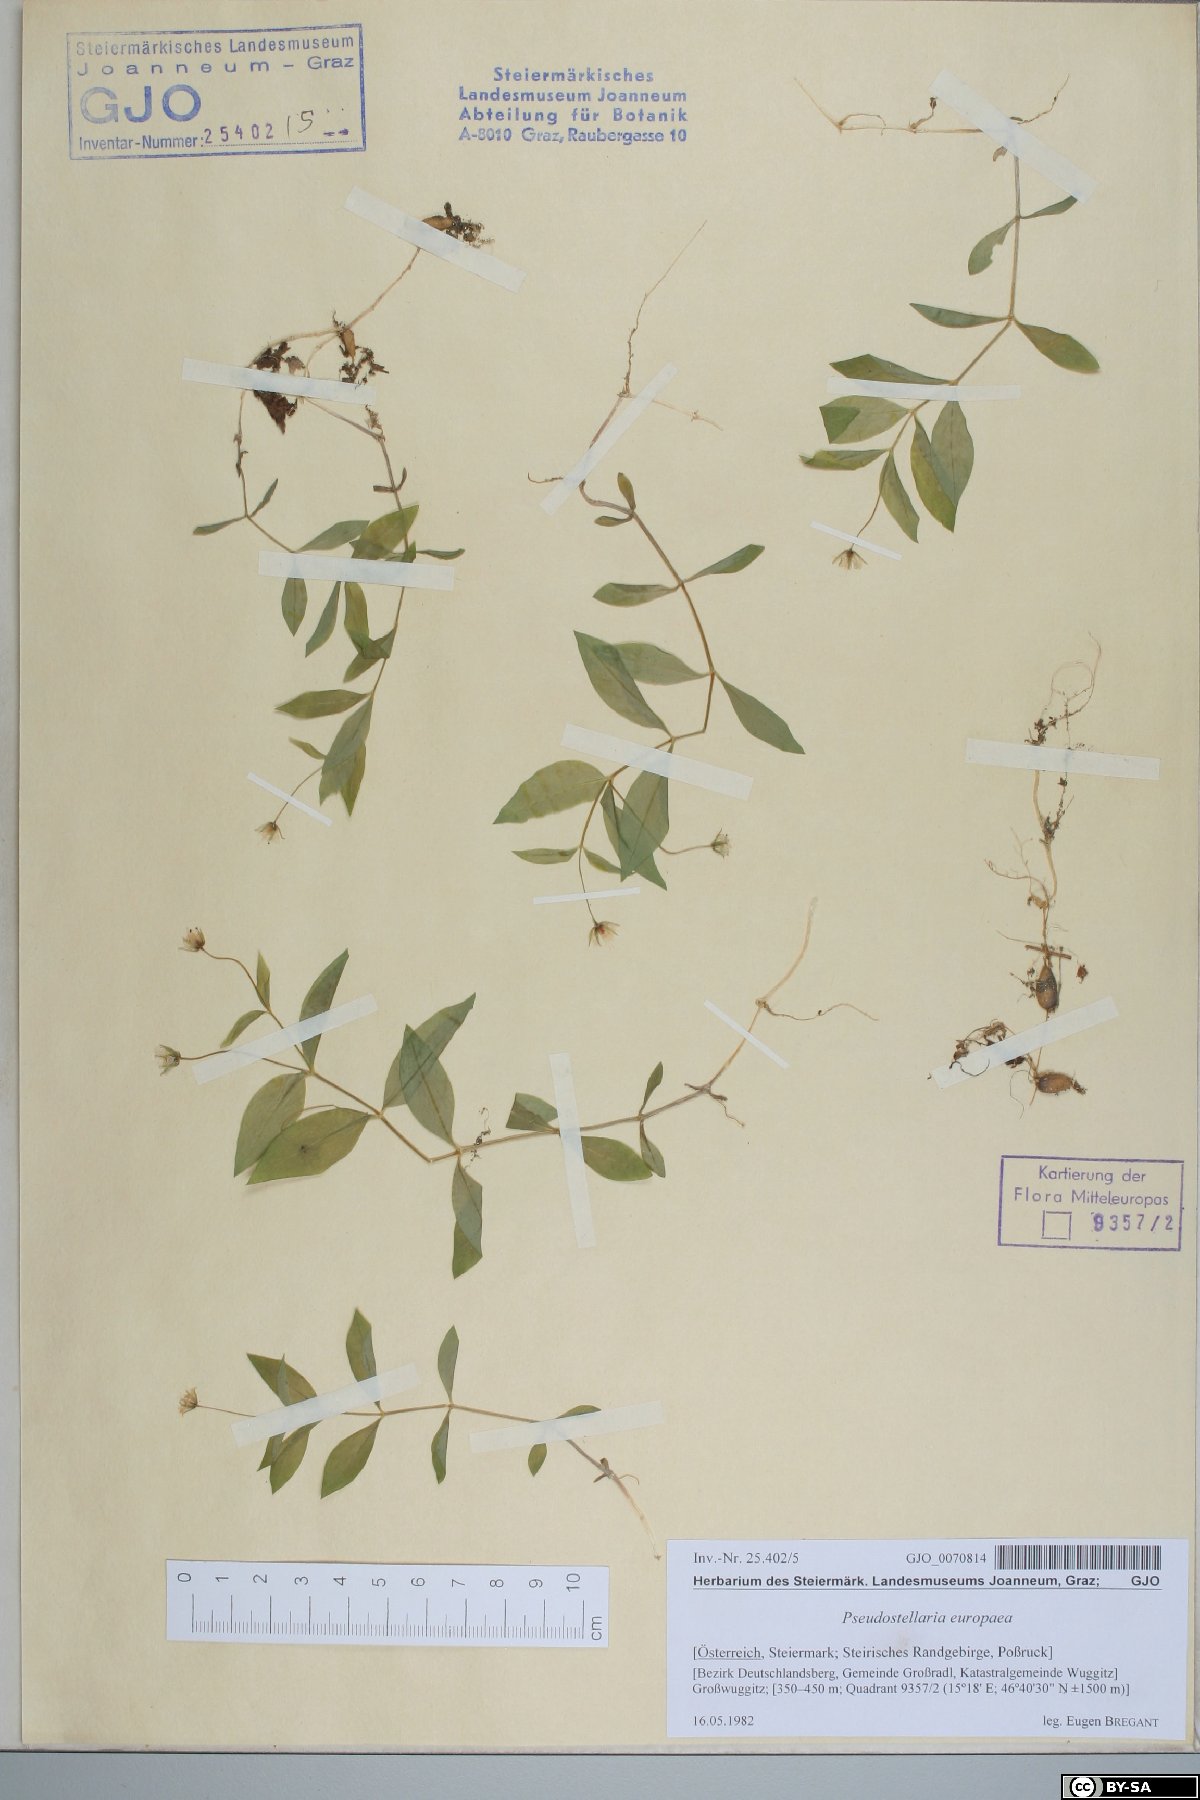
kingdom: Plantae
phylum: Tracheophyta
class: Magnoliopsida
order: Caryophyllales
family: Caryophyllaceae
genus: Pseudostellaria
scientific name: Pseudostellaria europaea
